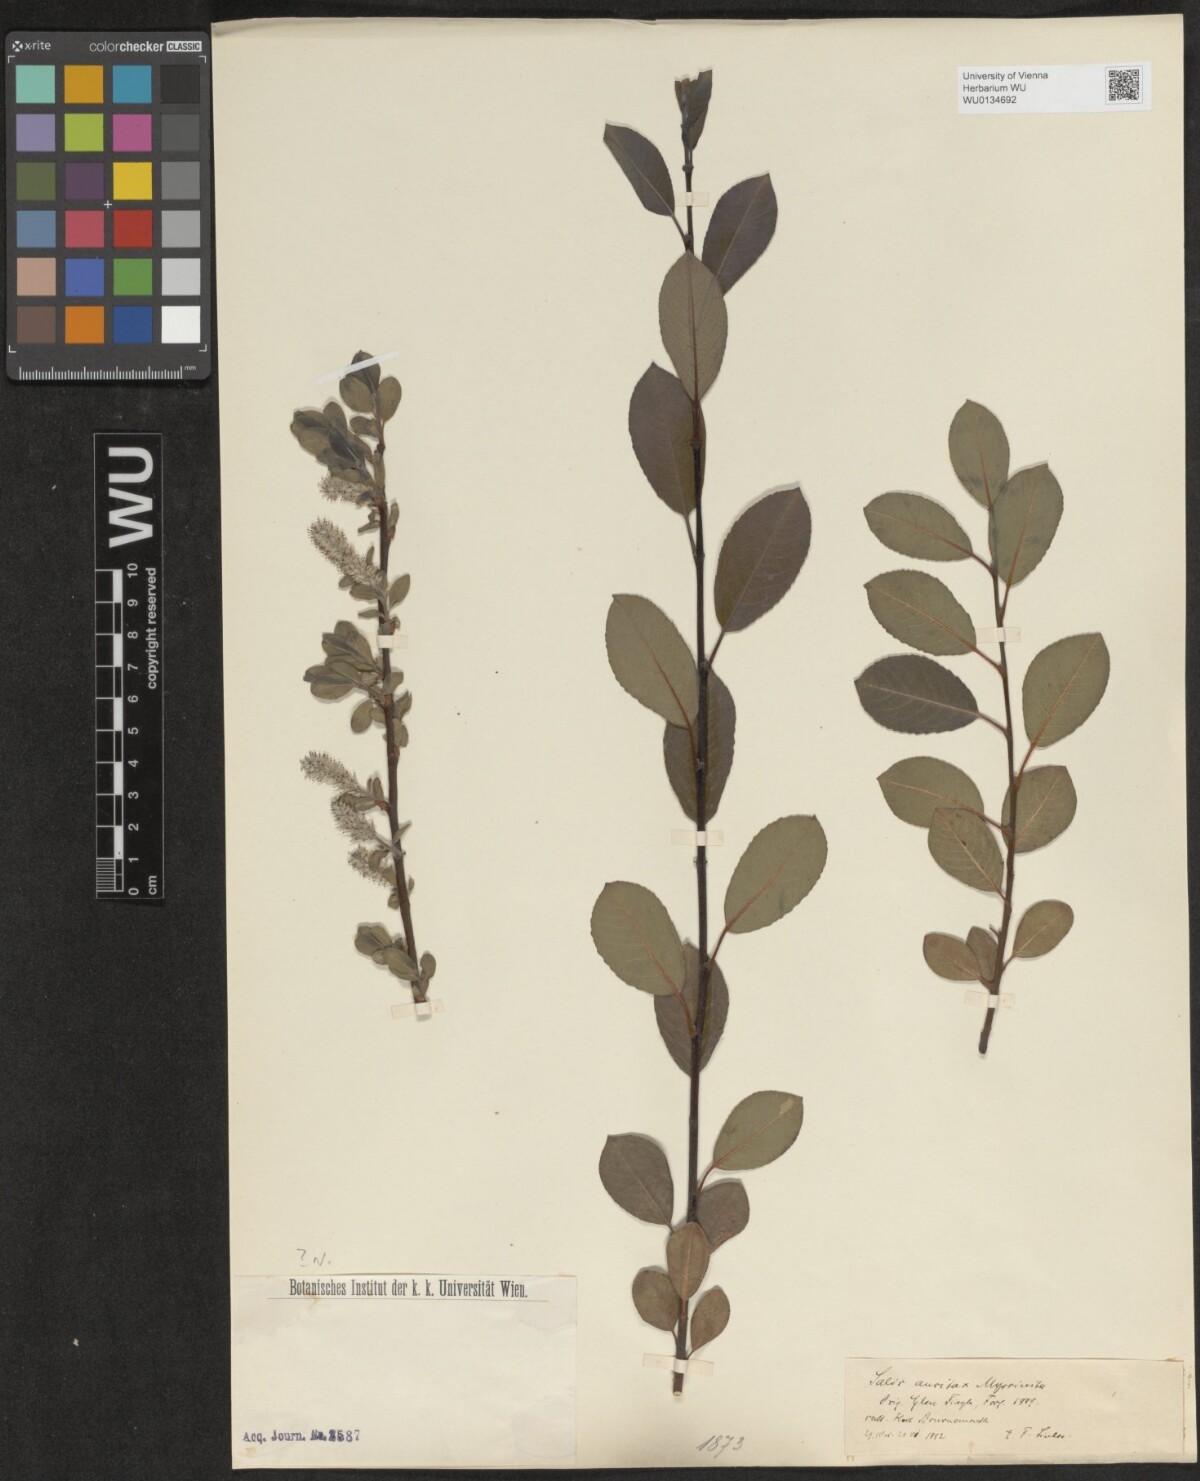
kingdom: Plantae
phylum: Tracheophyta
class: Magnoliopsida
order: Malpighiales
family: Salicaceae
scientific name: Salicaceae
